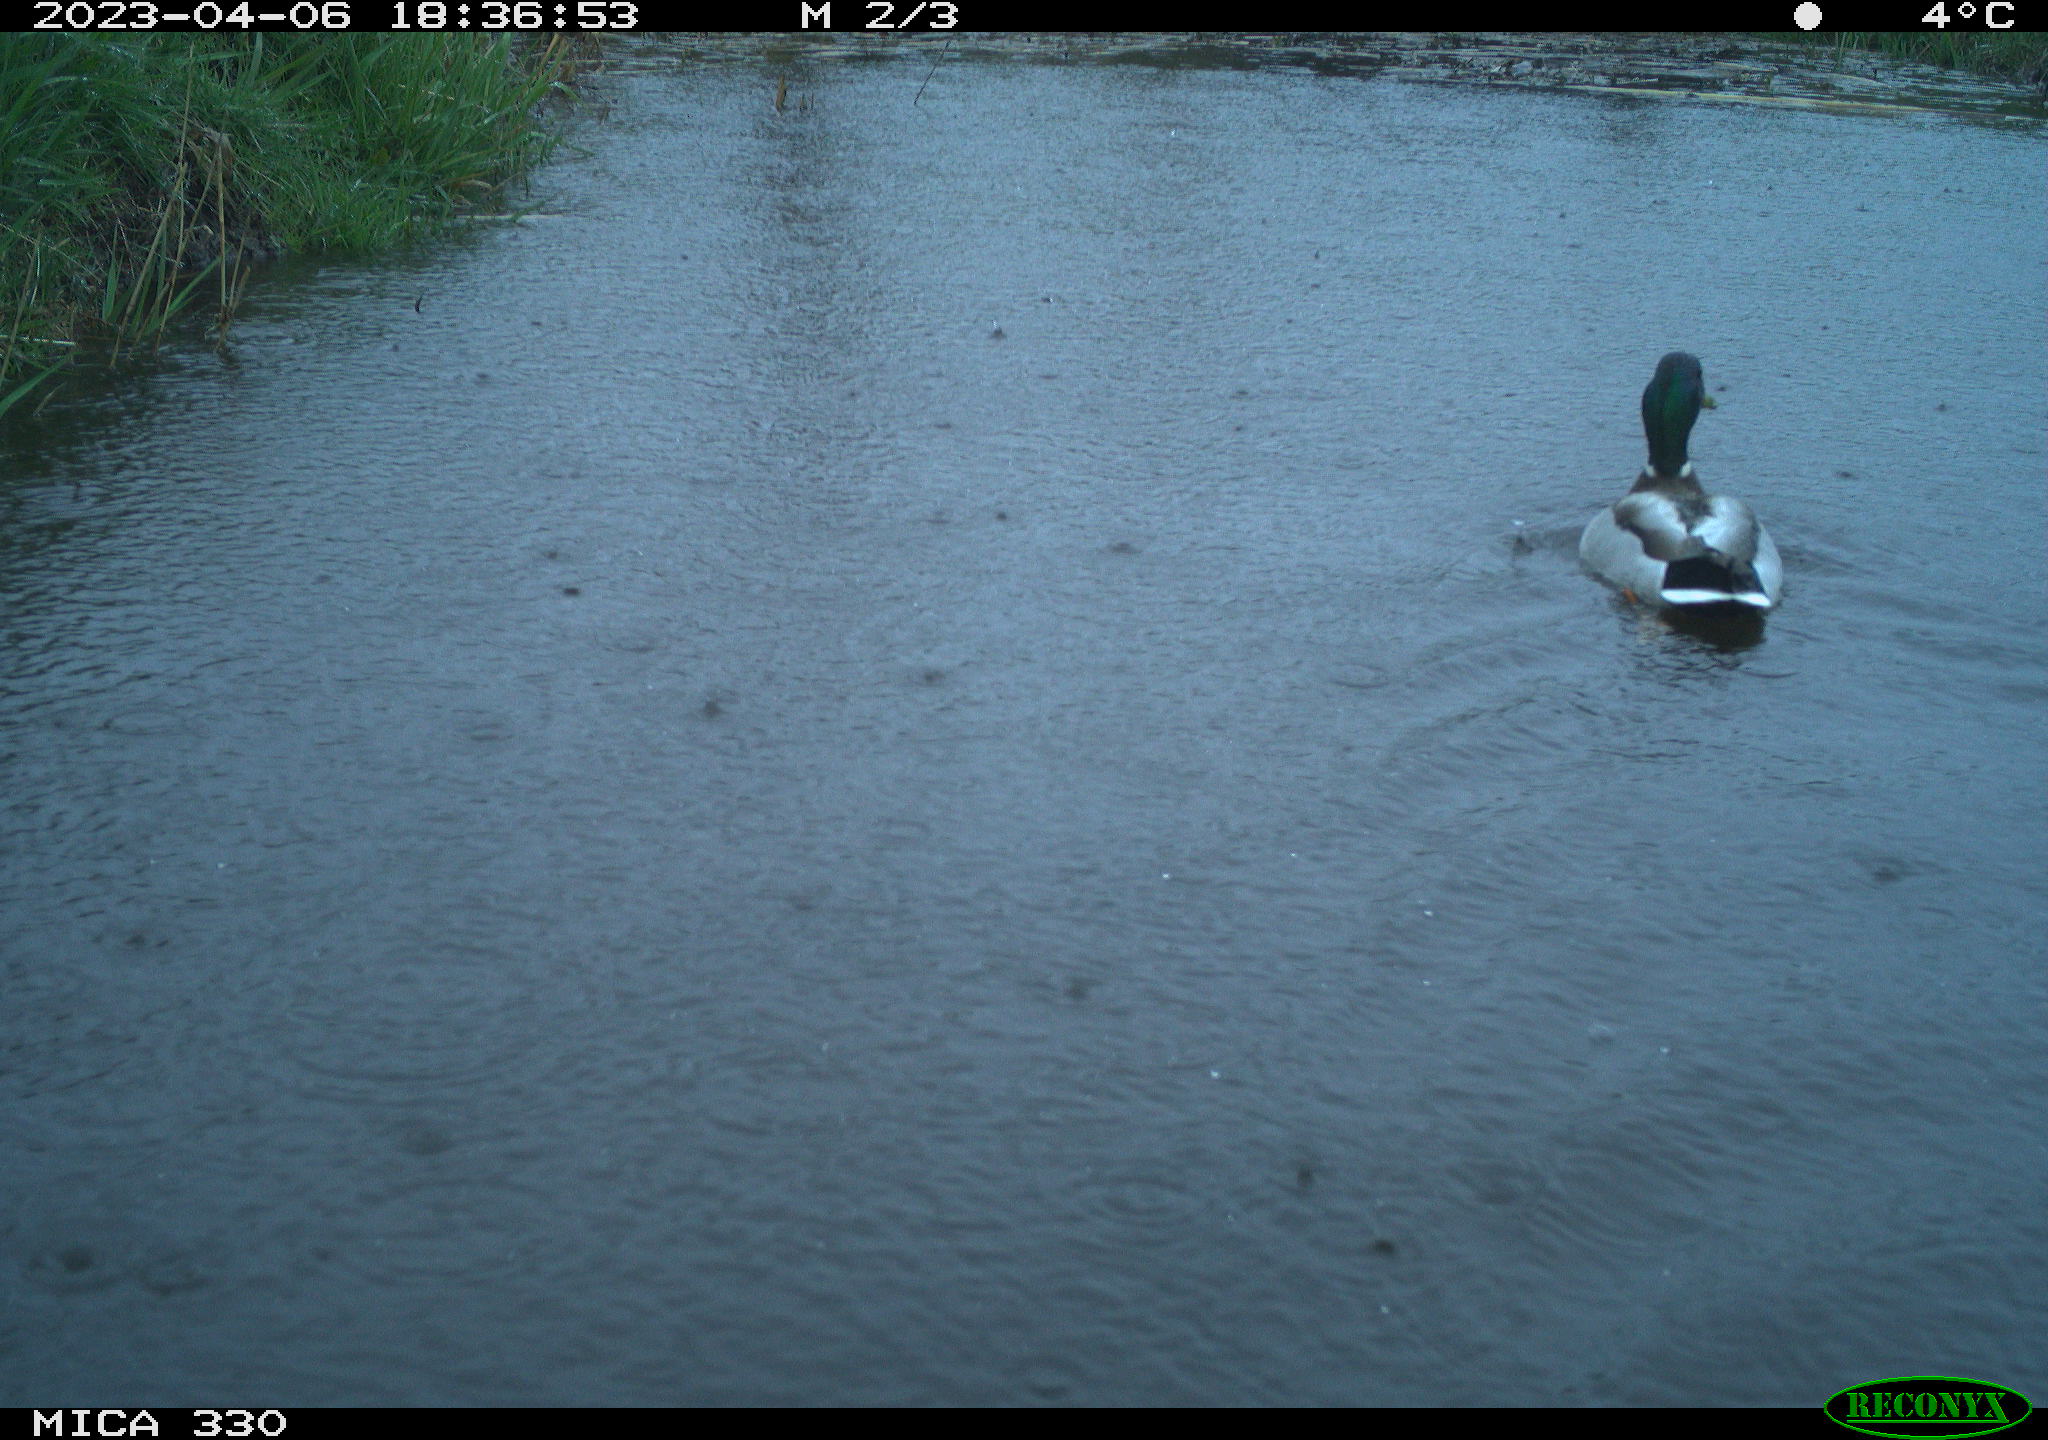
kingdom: Animalia
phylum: Chordata
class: Aves
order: Anseriformes
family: Anatidae
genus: Anas
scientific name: Anas
